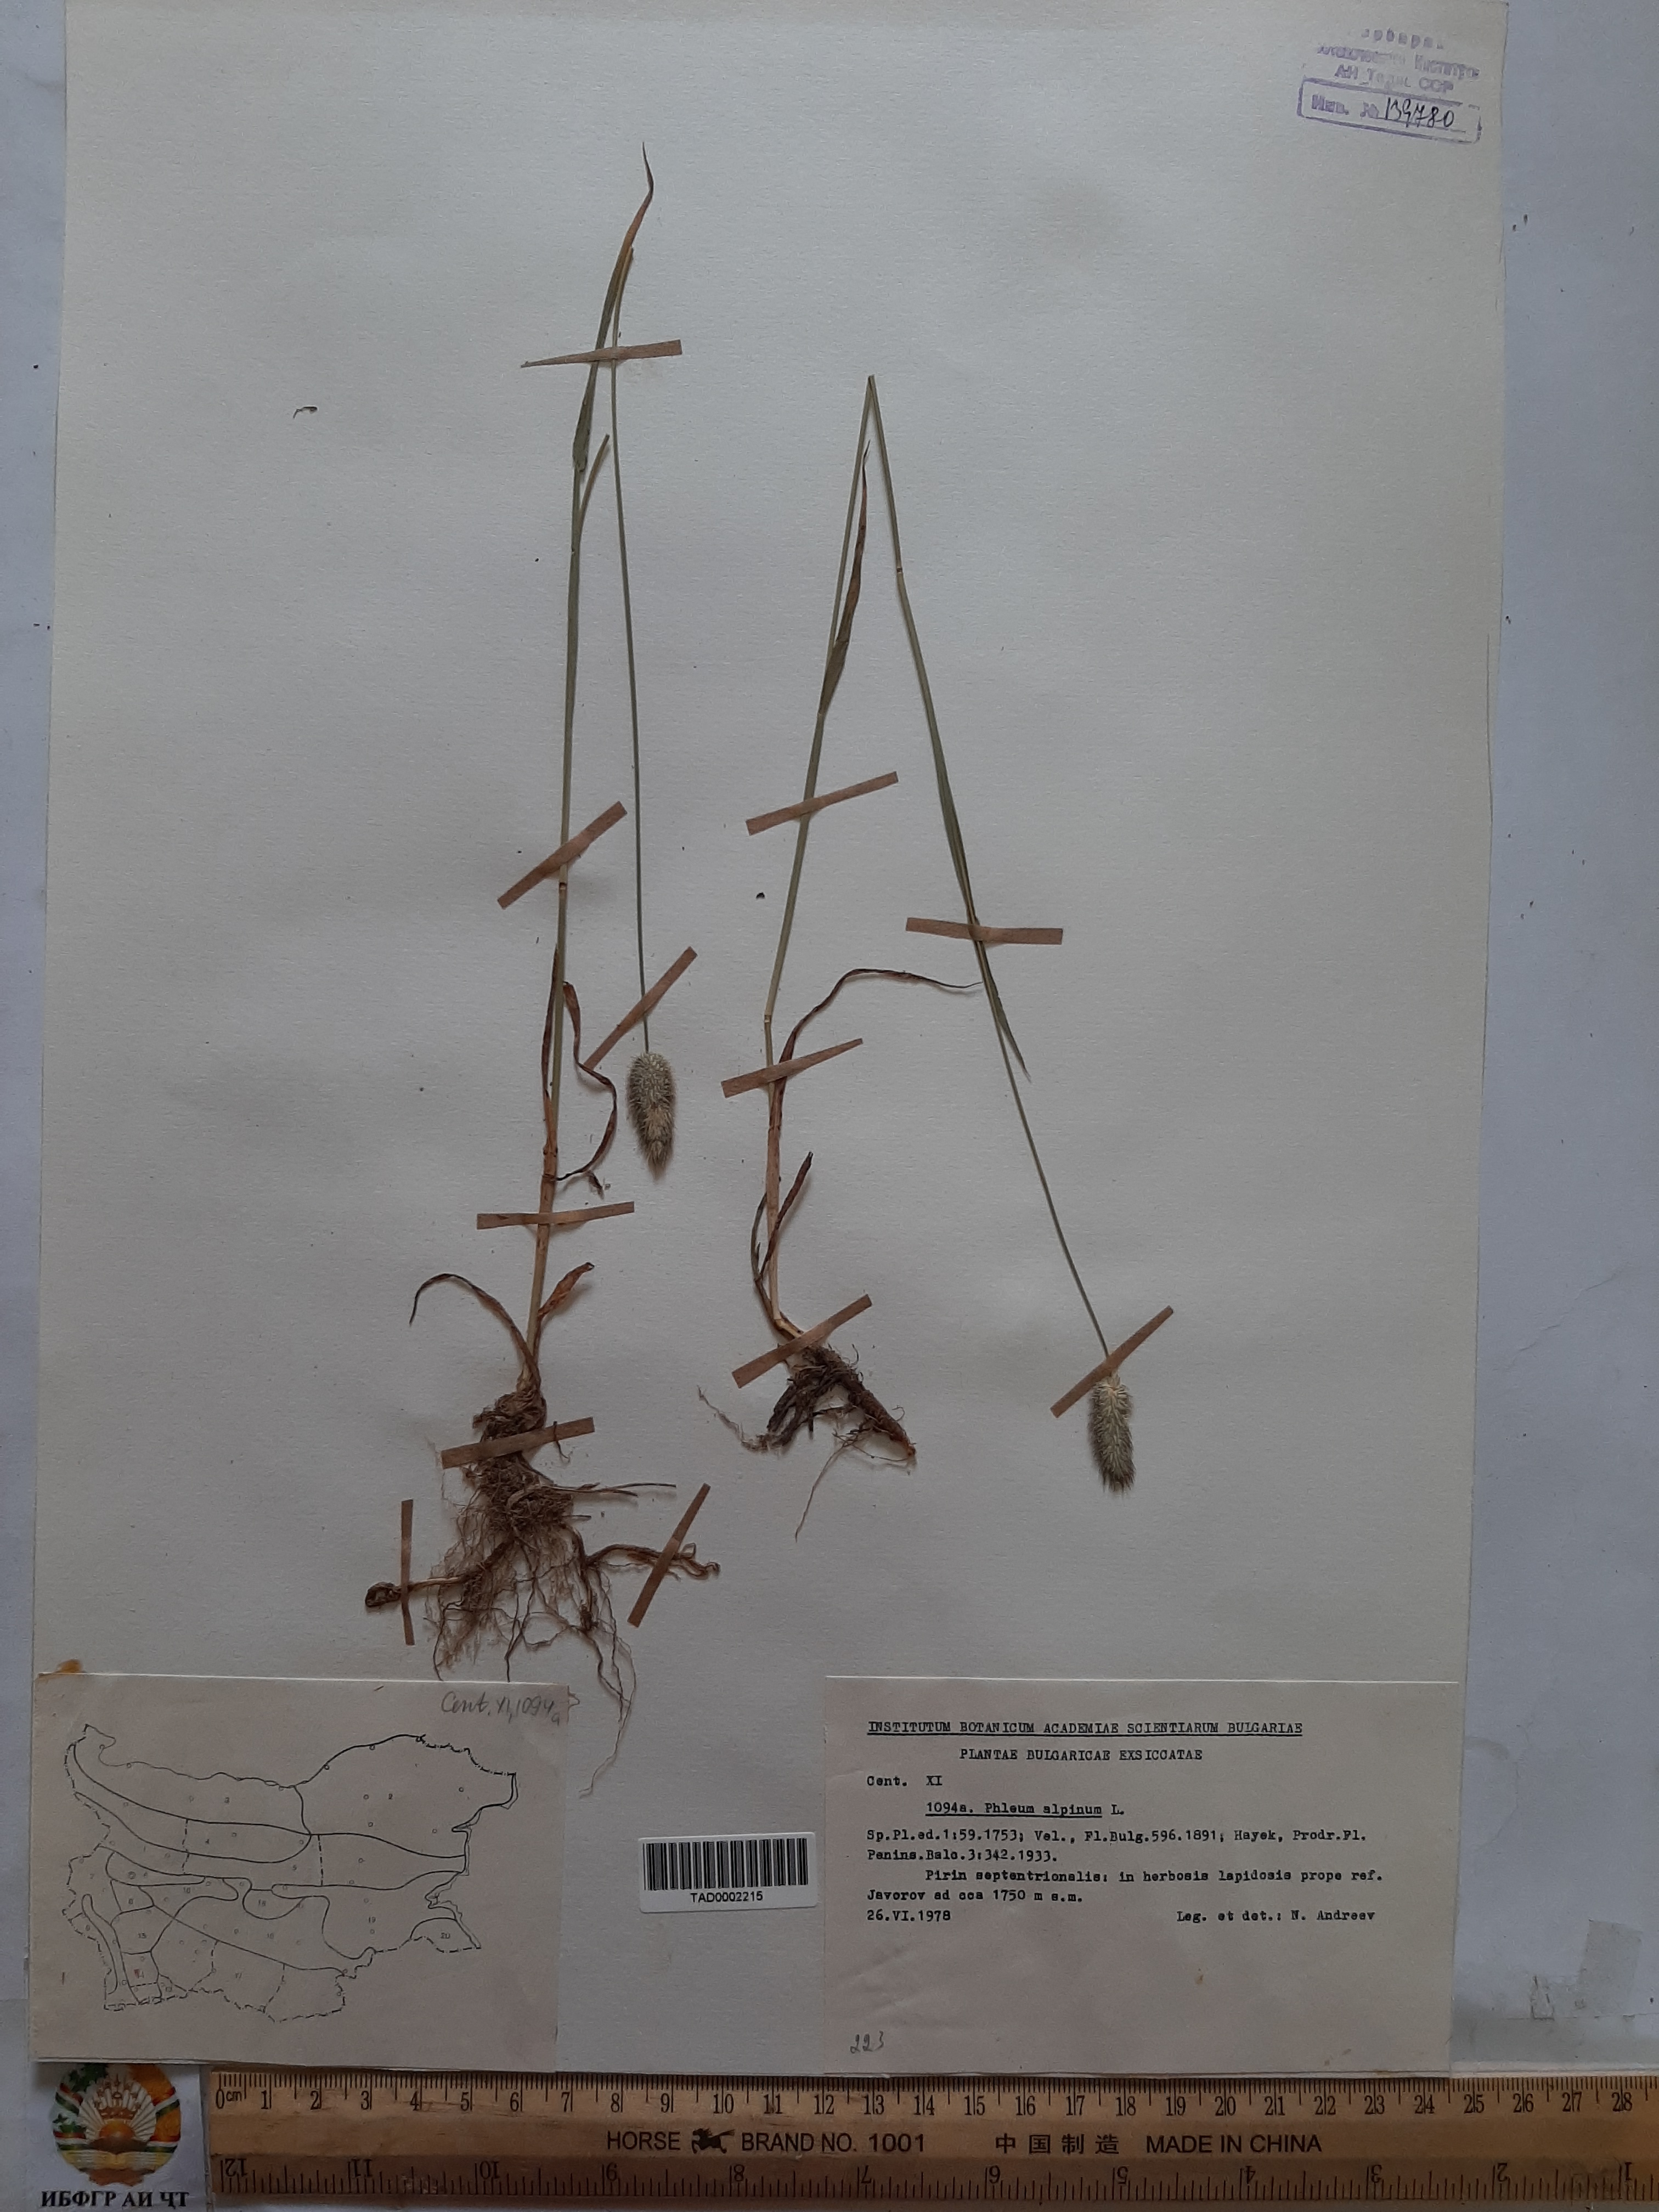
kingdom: Plantae
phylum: Tracheophyta
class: Liliopsida
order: Poales
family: Poaceae
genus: Phleum
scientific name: Phleum alpinum
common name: Alpine cat's-tail
